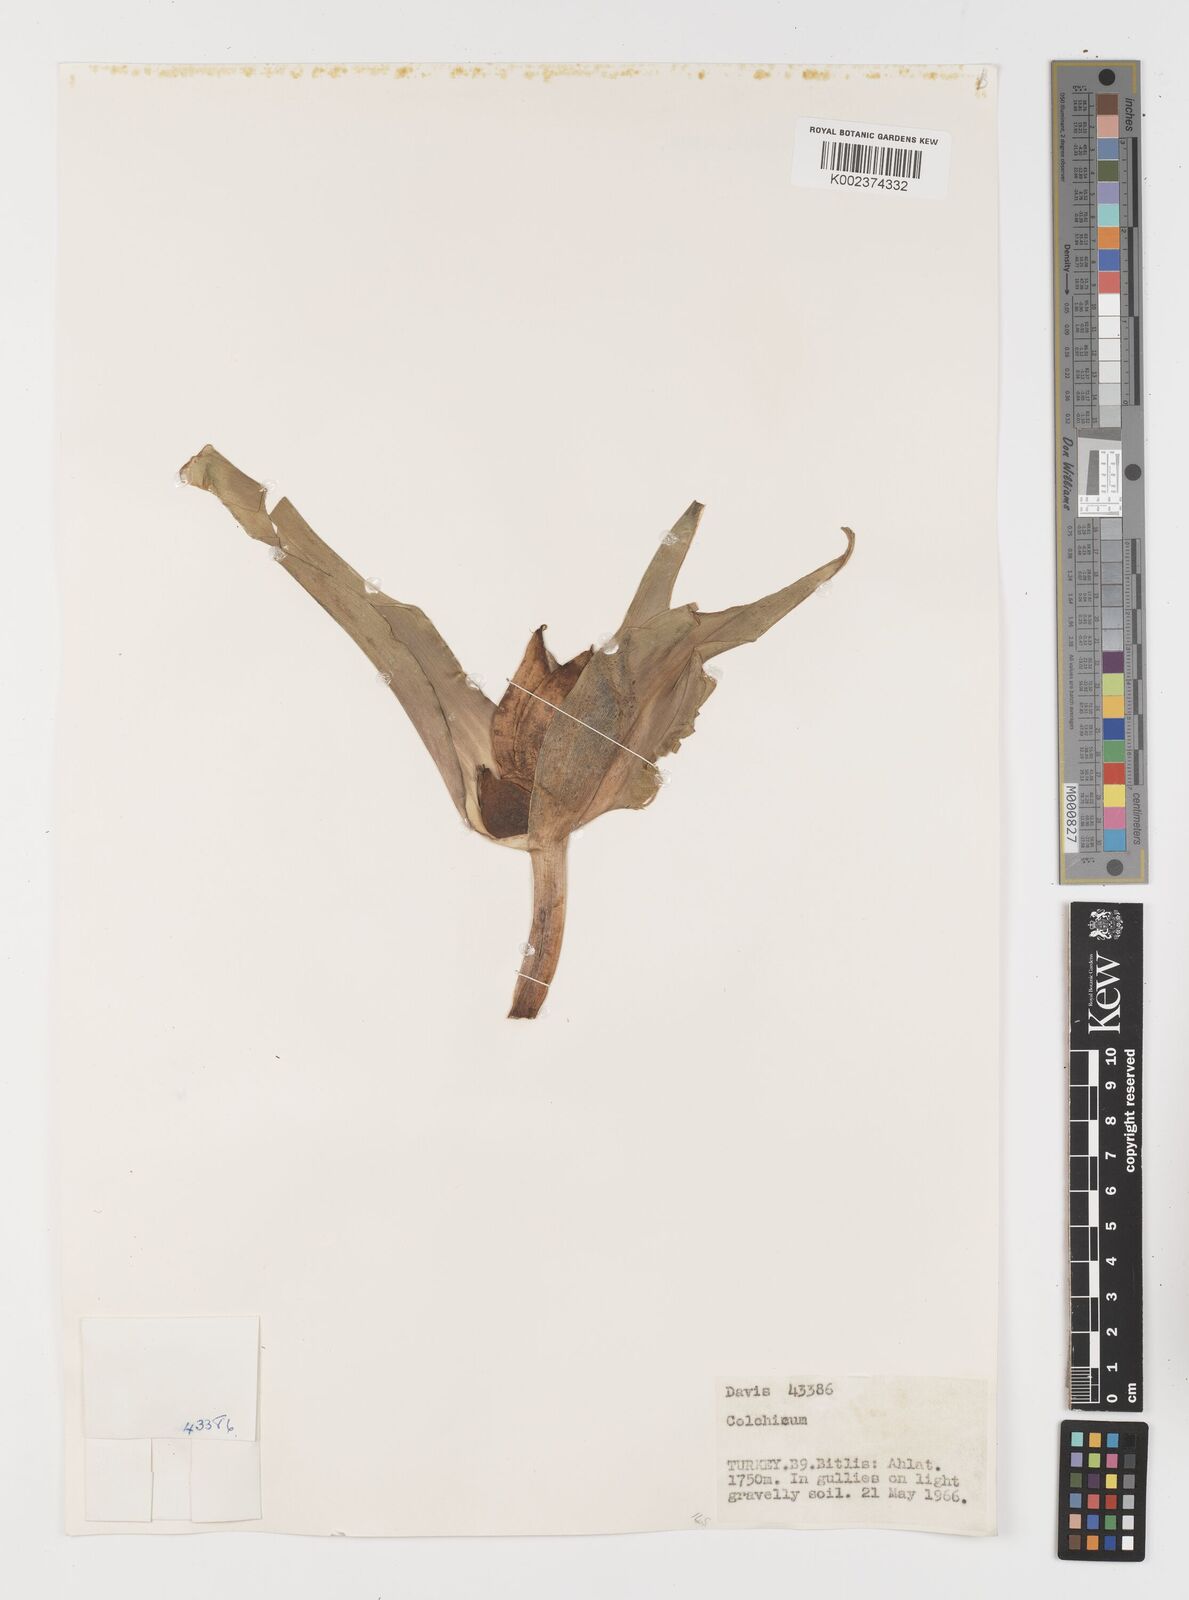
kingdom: Plantae
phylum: Tracheophyta
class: Liliopsida
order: Liliales
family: Colchicaceae
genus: Colchicum
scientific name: Colchicum
